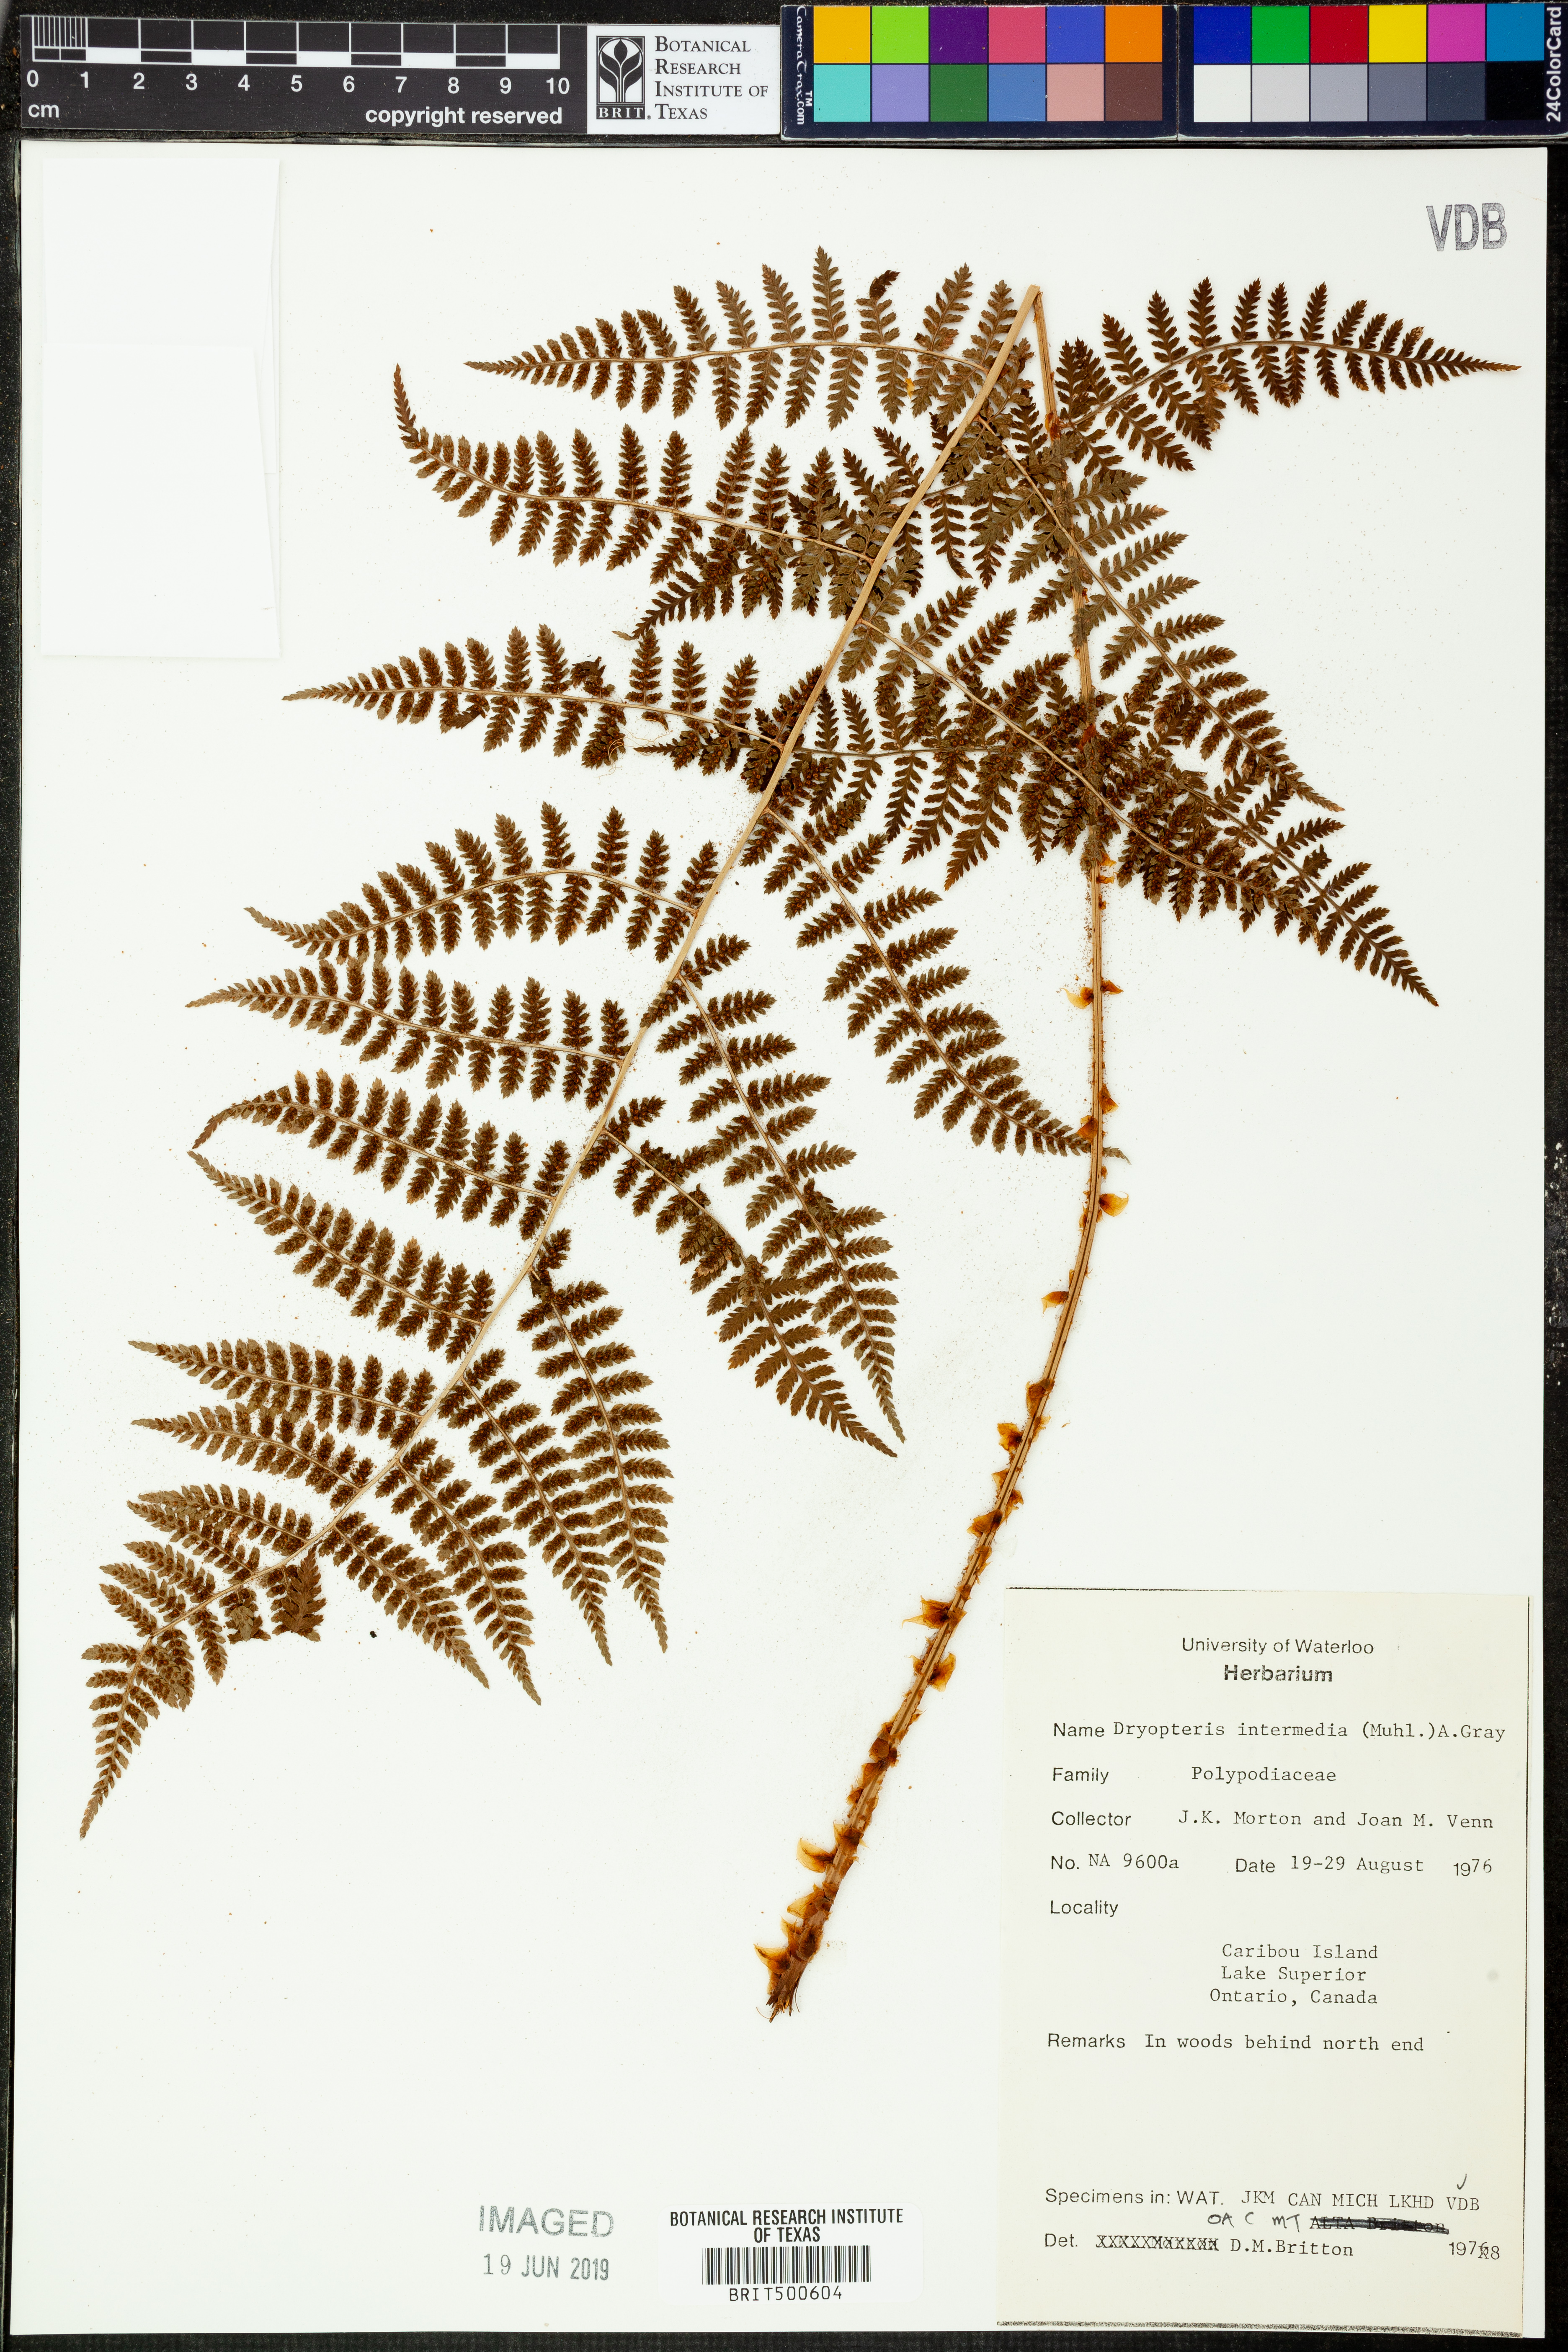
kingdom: Plantae
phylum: Tracheophyta
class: Polypodiopsida
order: Polypodiales
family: Dryopteridaceae
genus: Dryopteris
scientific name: Dryopteris intermedia
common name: Evergreen wood fern
